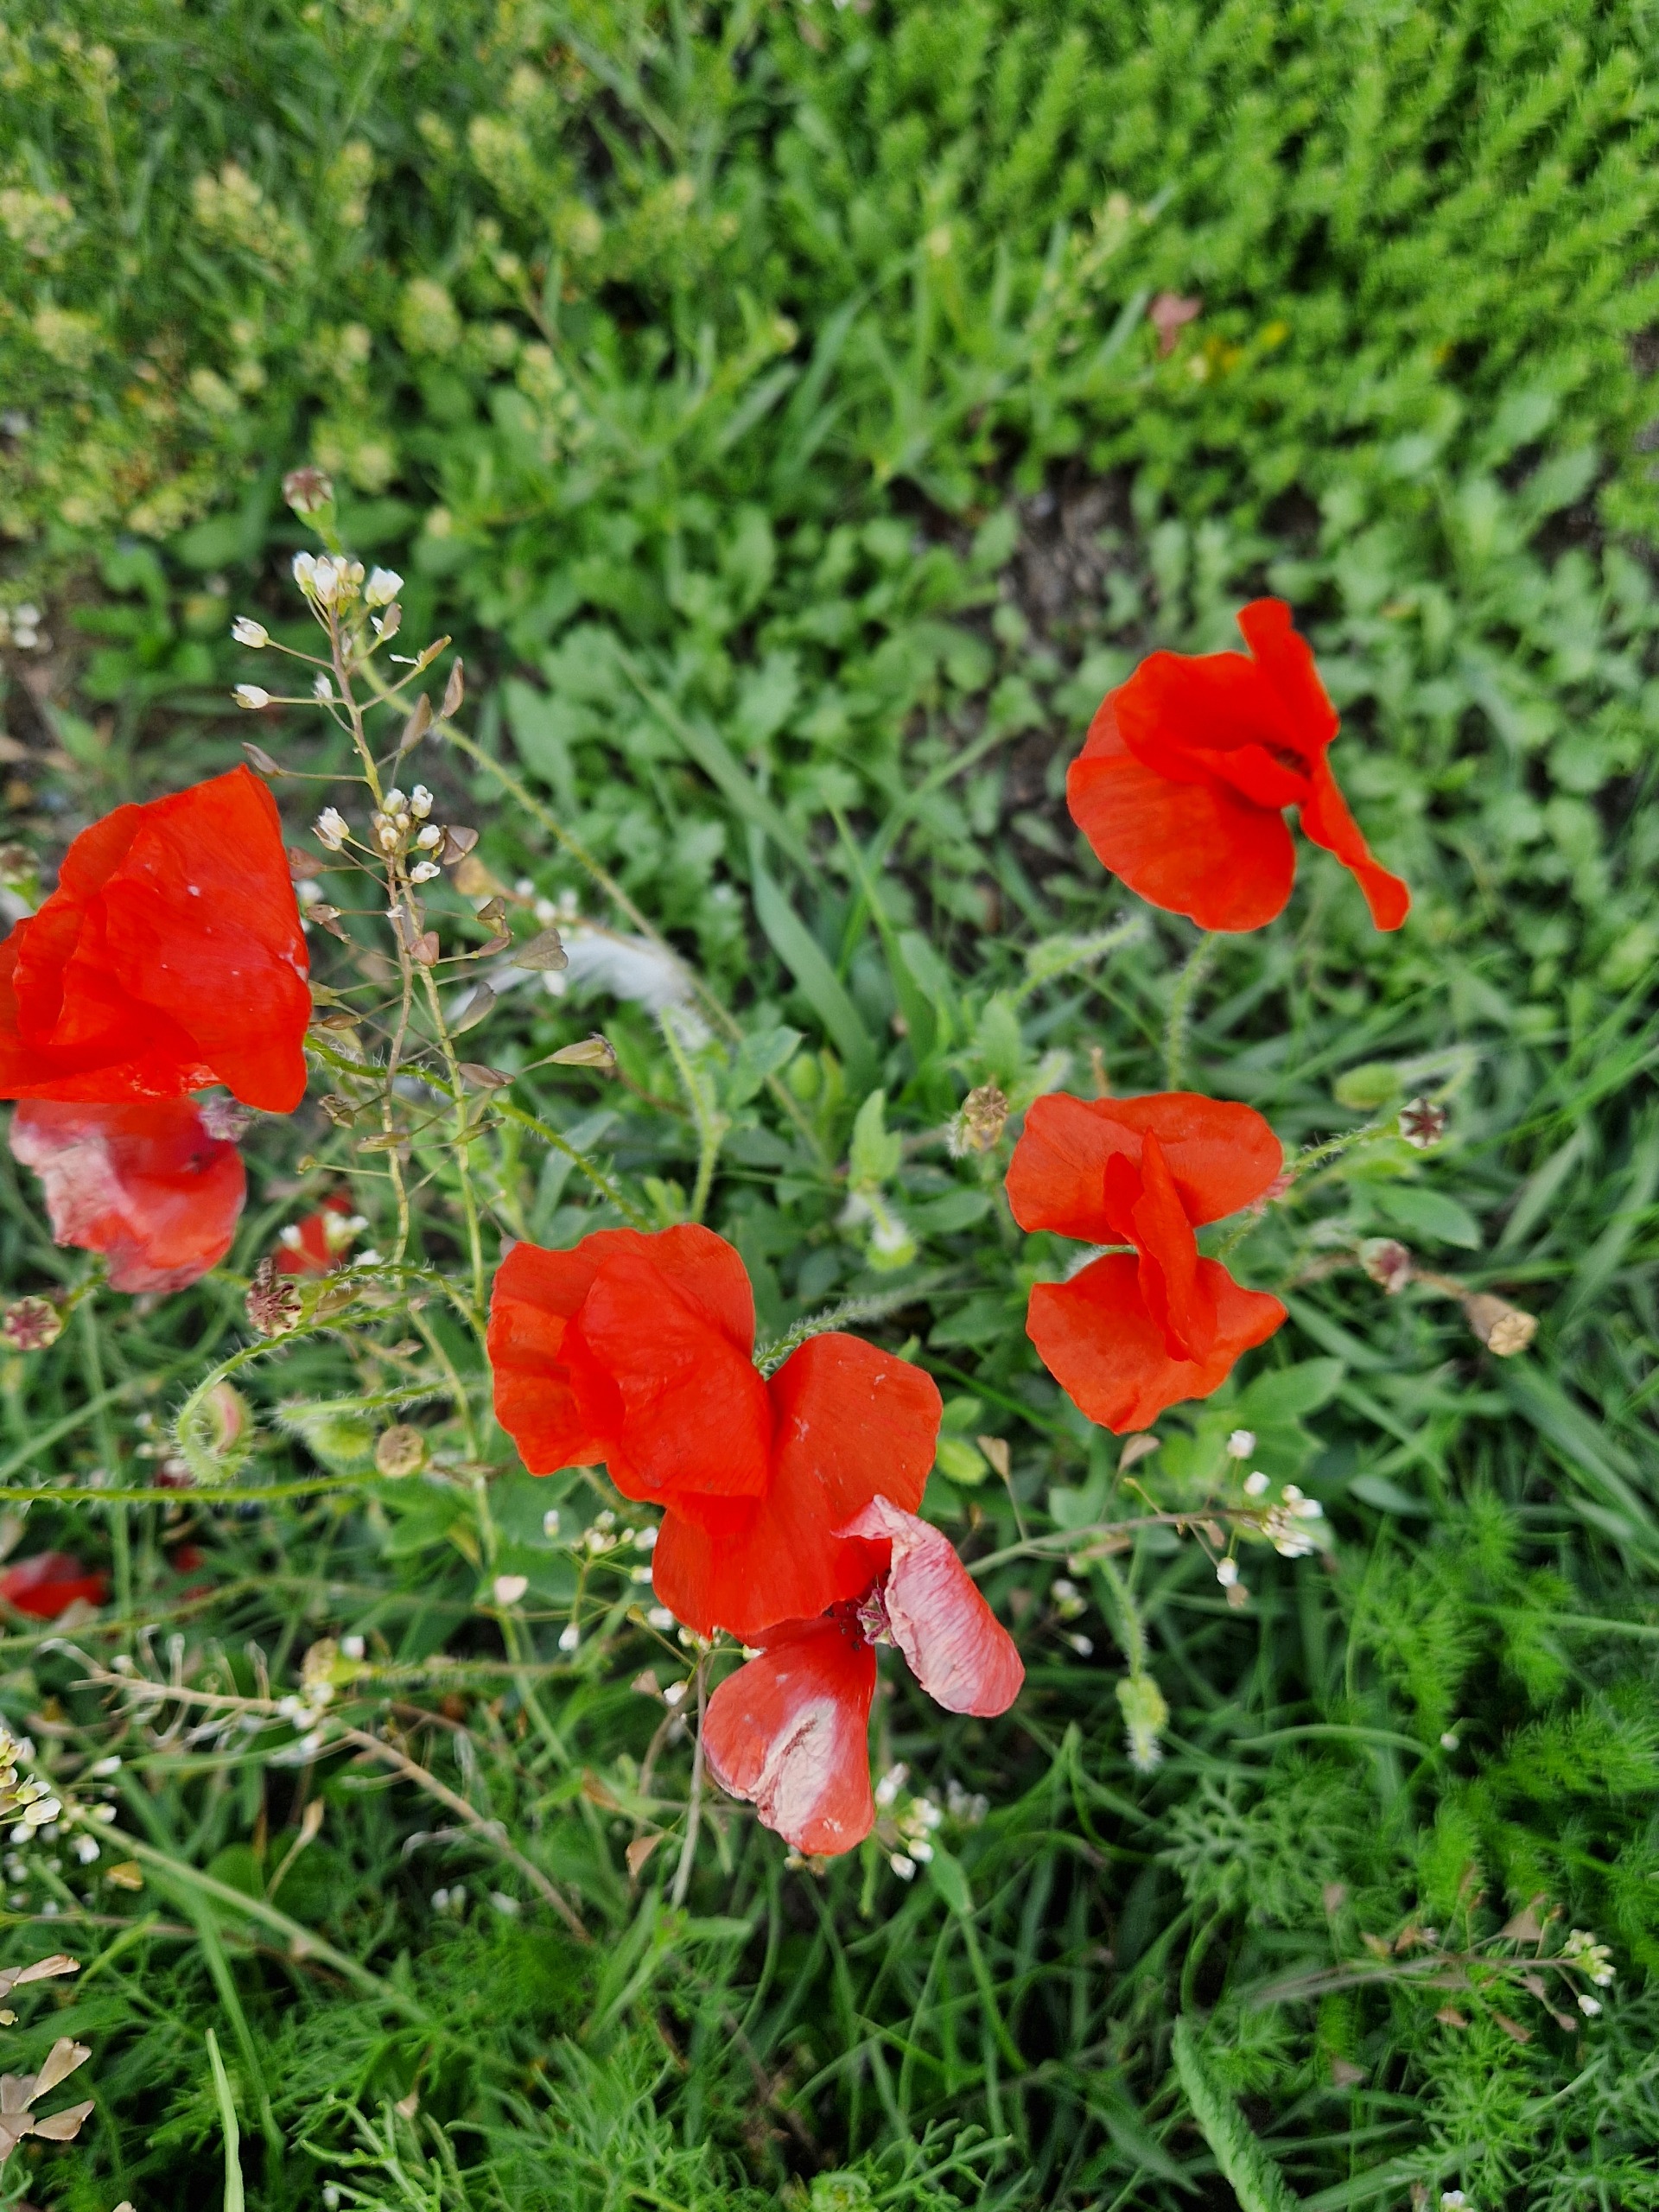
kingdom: Plantae
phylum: Tracheophyta
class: Magnoliopsida
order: Ranunculales
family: Papaveraceae
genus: Papaver
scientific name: Papaver rhoeas
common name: Korn-valmue
